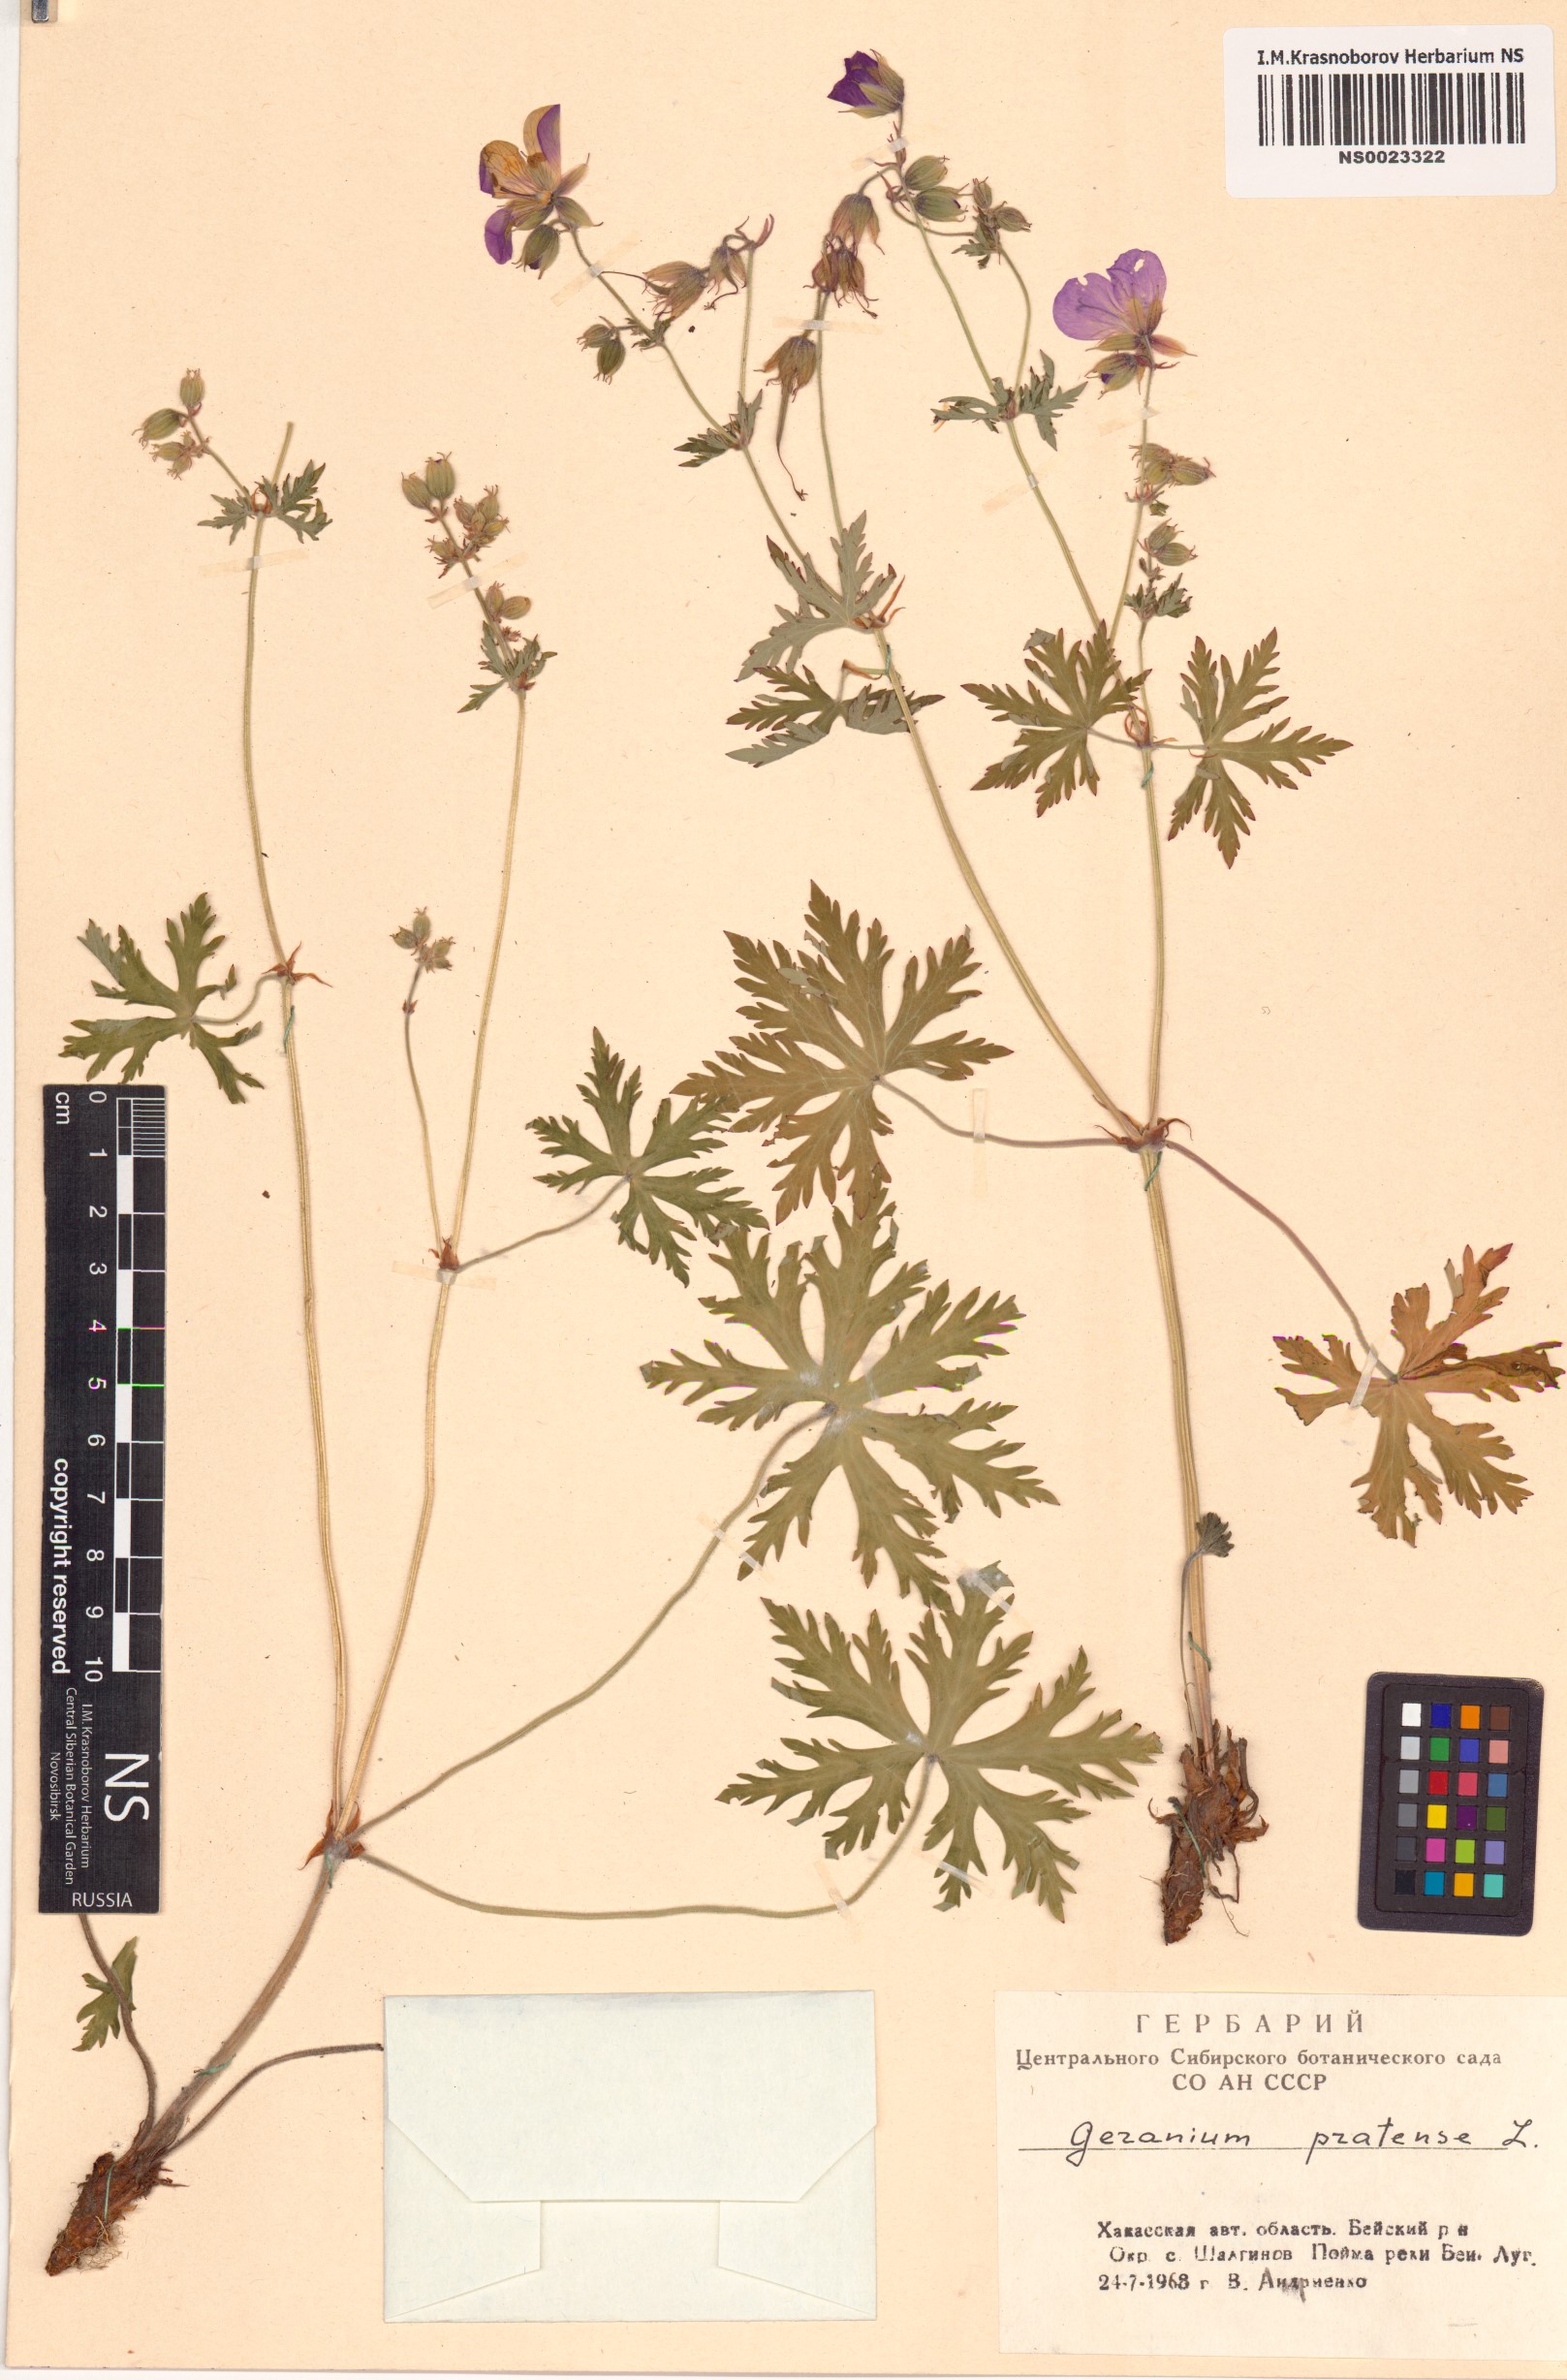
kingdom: Plantae
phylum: Tracheophyta
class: Magnoliopsida
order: Geraniales
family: Geraniaceae
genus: Geranium
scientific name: Geranium pratense
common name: Meadow crane's-bill
